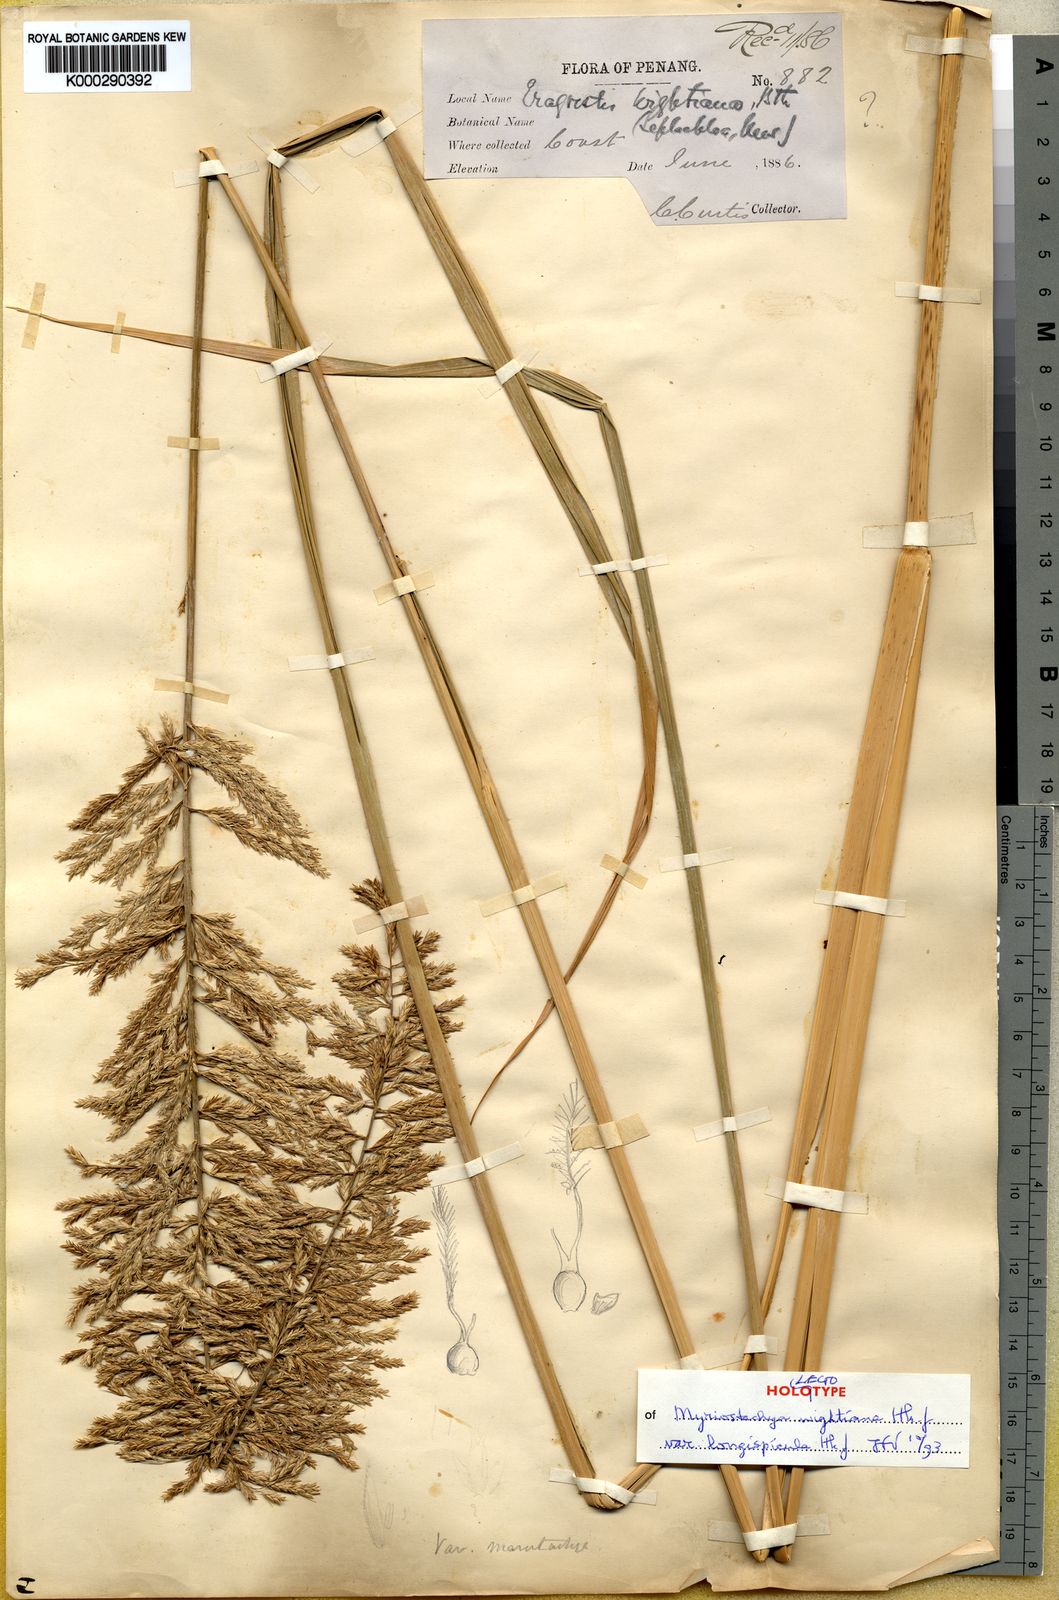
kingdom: Plantae
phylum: Tracheophyta
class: Liliopsida
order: Poales
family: Poaceae
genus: Myriostachya
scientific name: Myriostachya wightiana
